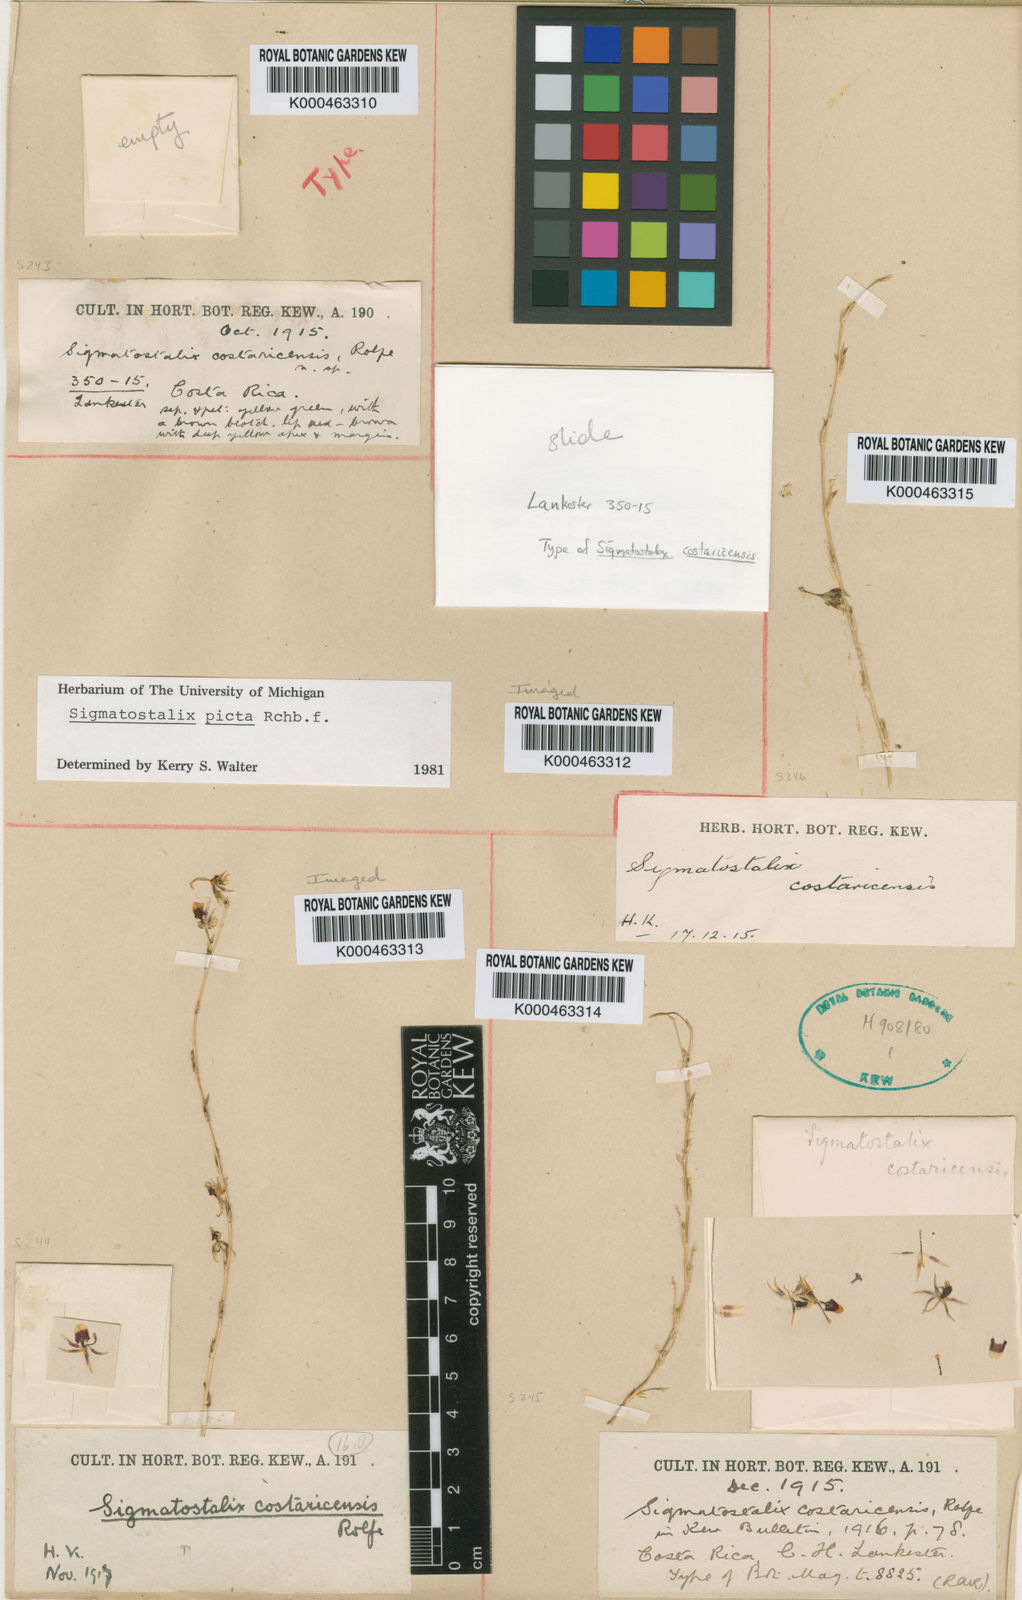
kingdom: Plantae
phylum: Tracheophyta
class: Liliopsida
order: Asparagales
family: Orchidaceae
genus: Oncidium
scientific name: Oncidium poikilostalix
